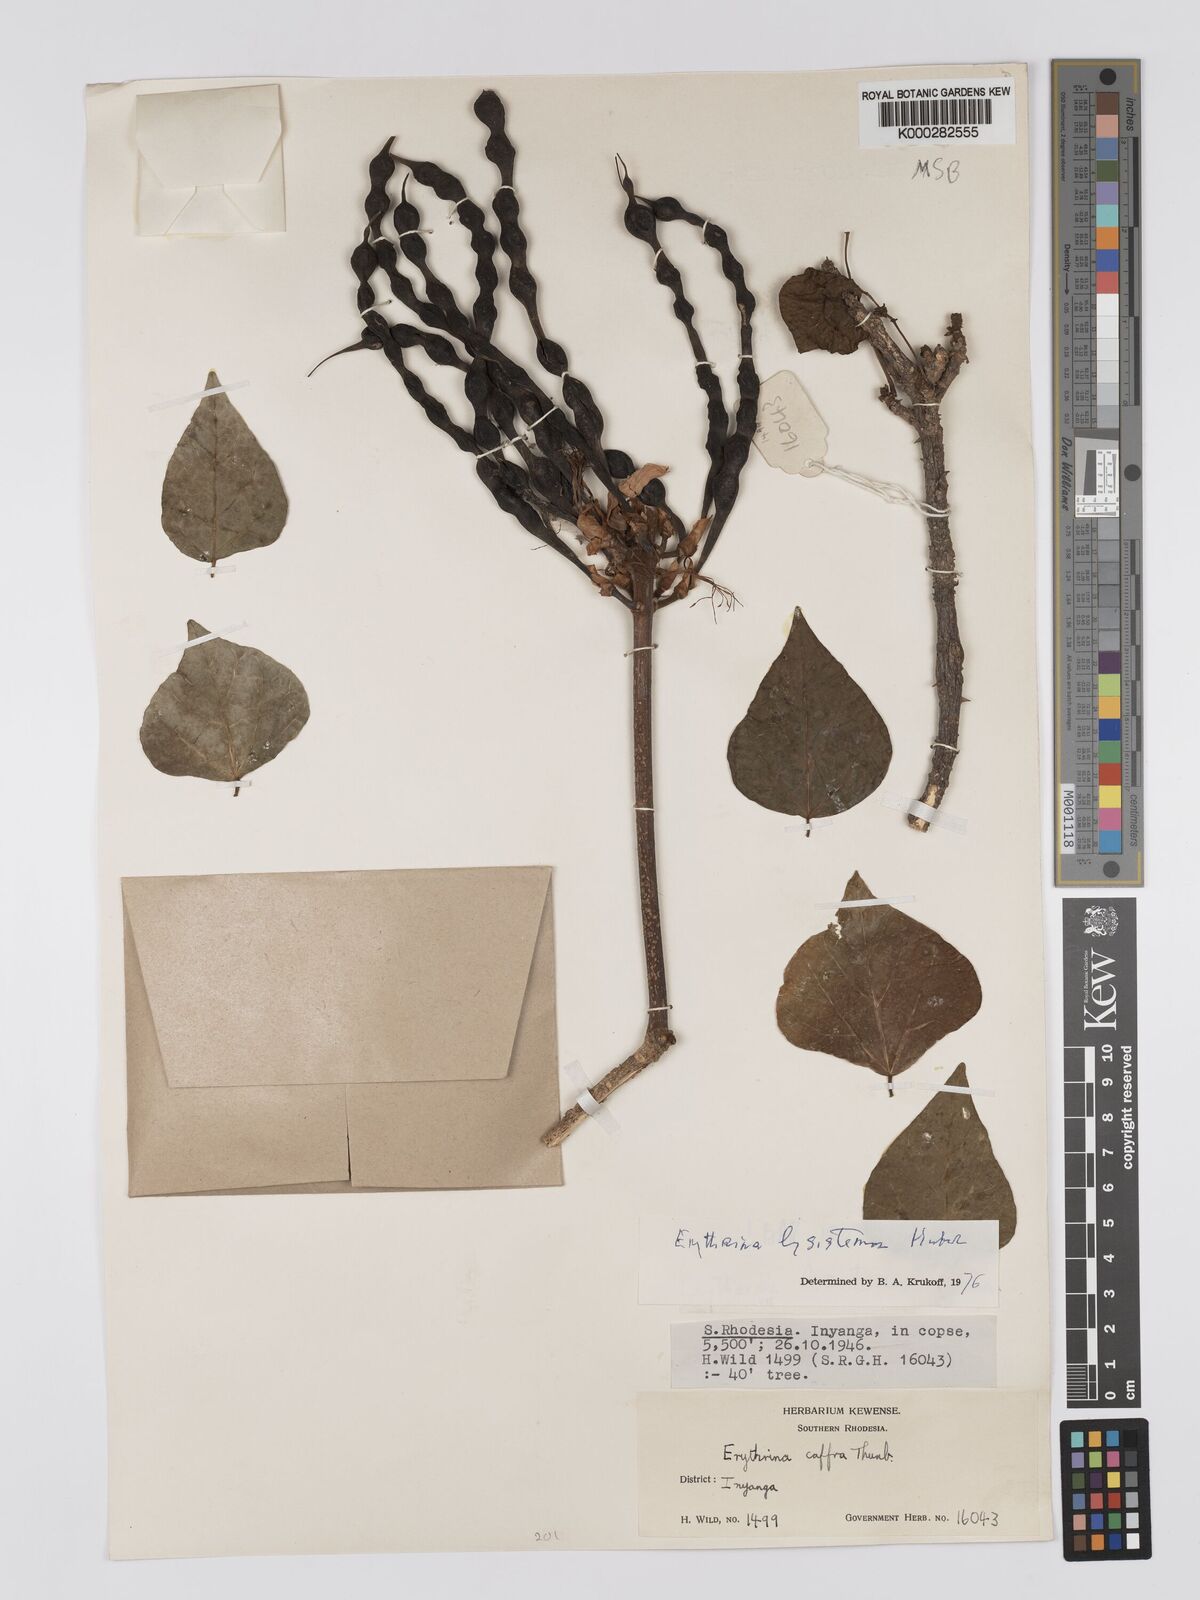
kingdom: Plantae
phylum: Tracheophyta
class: Magnoliopsida
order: Fabales
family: Fabaceae
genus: Erythrina
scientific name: Erythrina lysistemon
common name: Common coral tree
